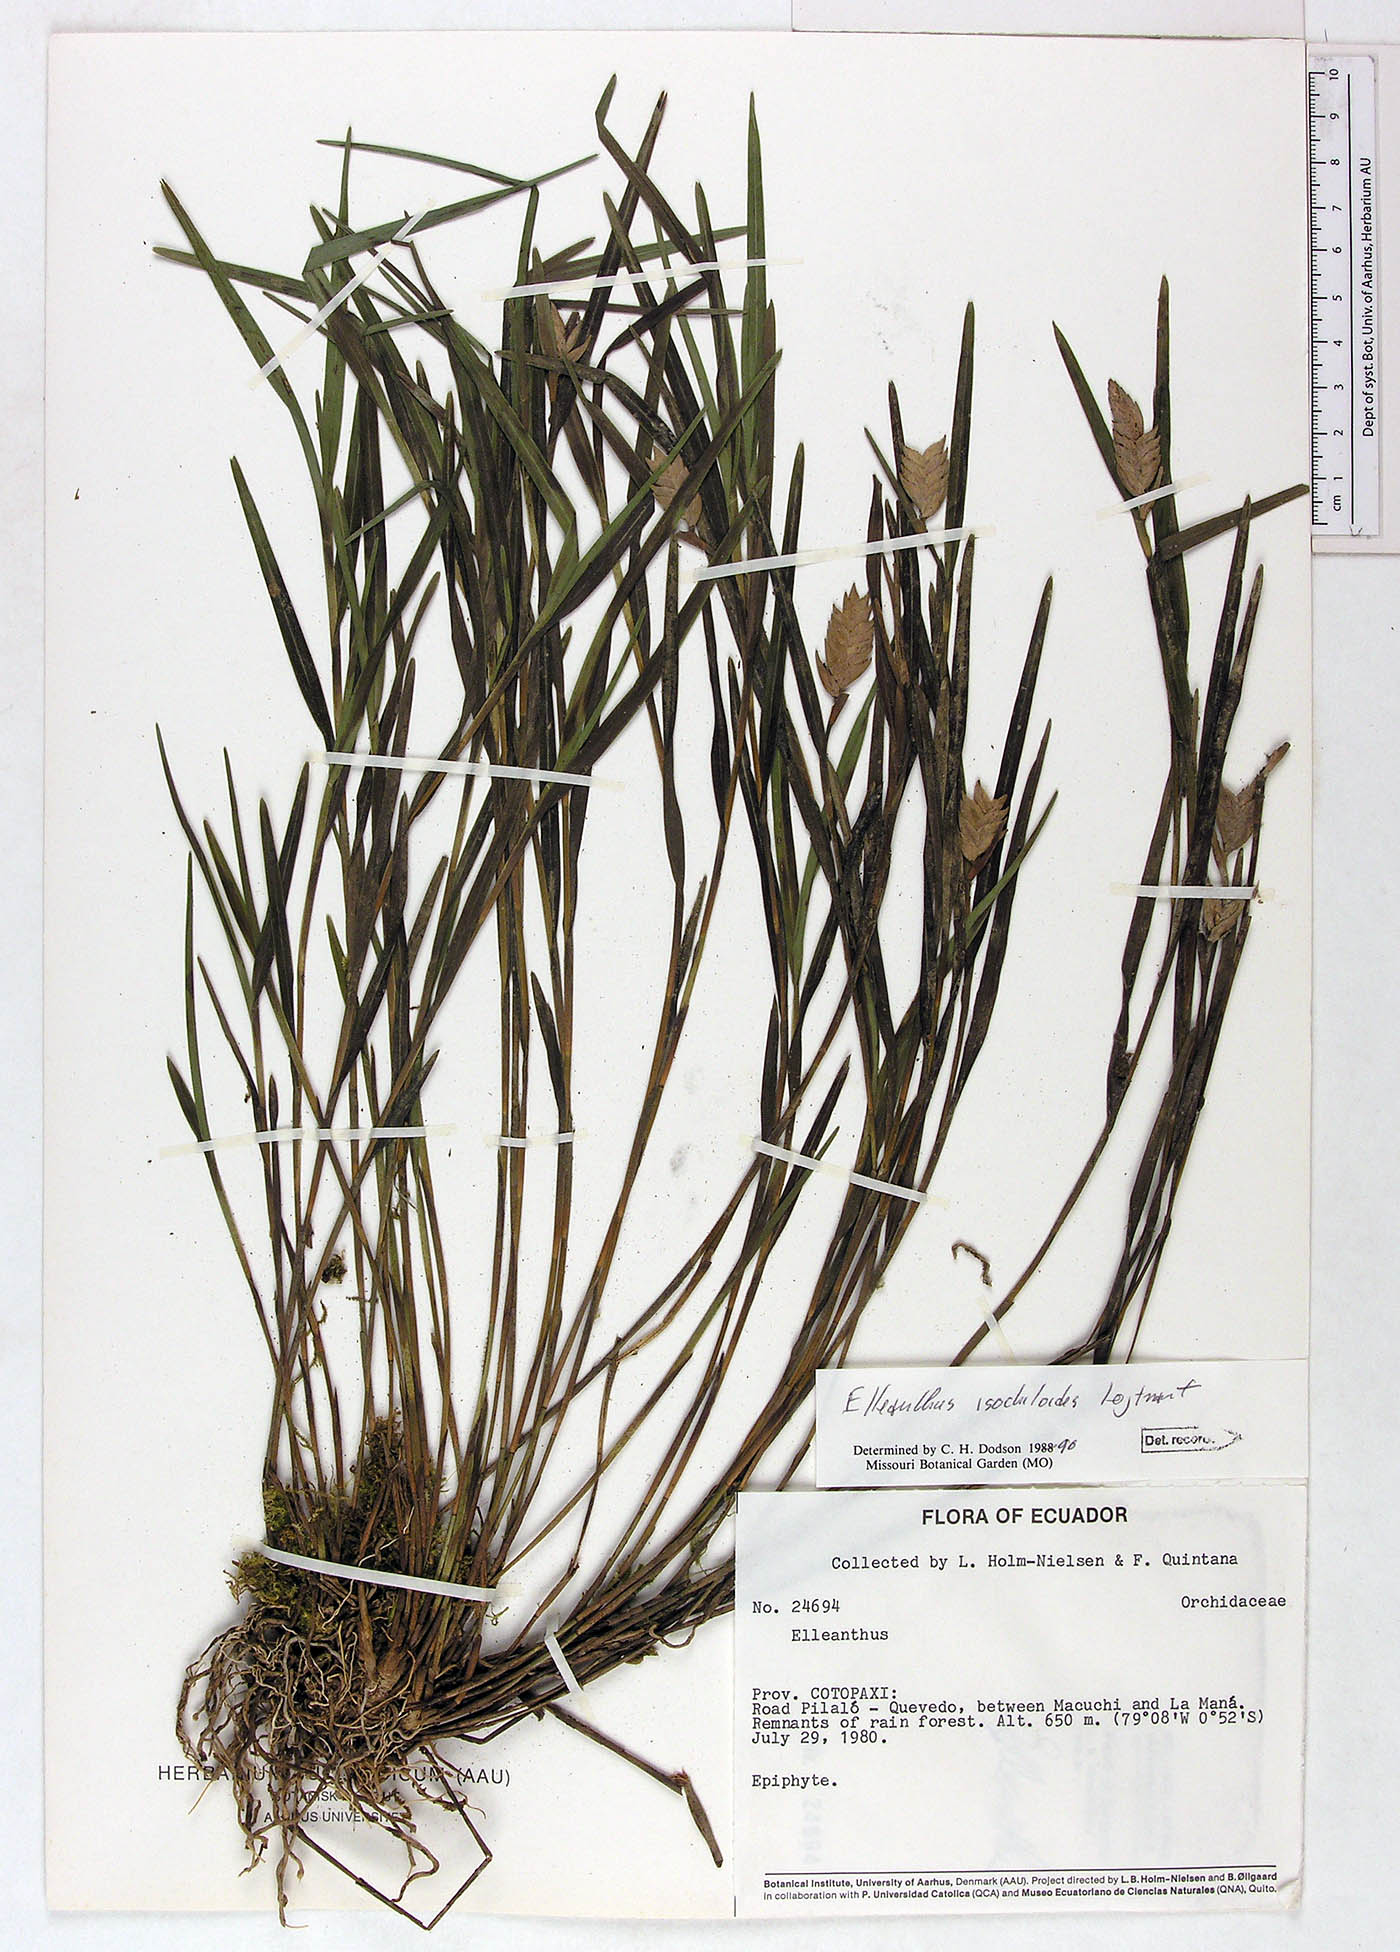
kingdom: Plantae
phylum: Tracheophyta
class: Liliopsida
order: Asparagales
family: Orchidaceae
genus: Elleanthus
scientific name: Elleanthus isochiloides
